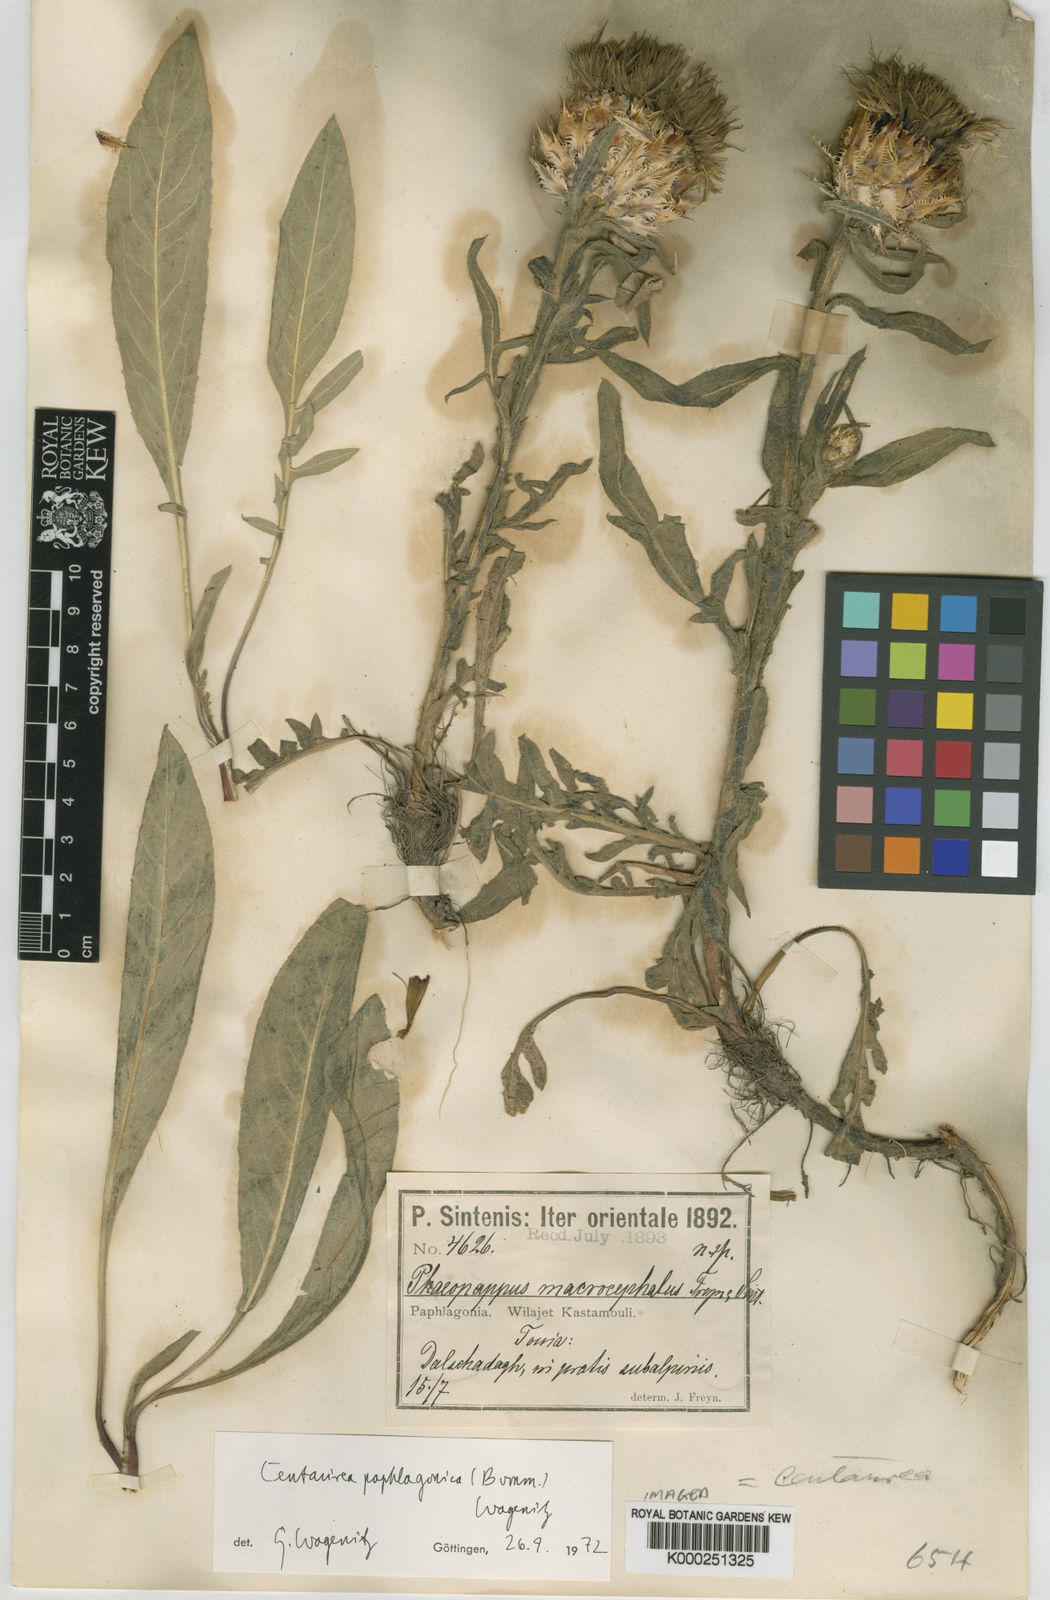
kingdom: Plantae
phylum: Tracheophyta
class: Magnoliopsida
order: Asterales
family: Asteraceae
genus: Centaurea
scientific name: Centaurea
